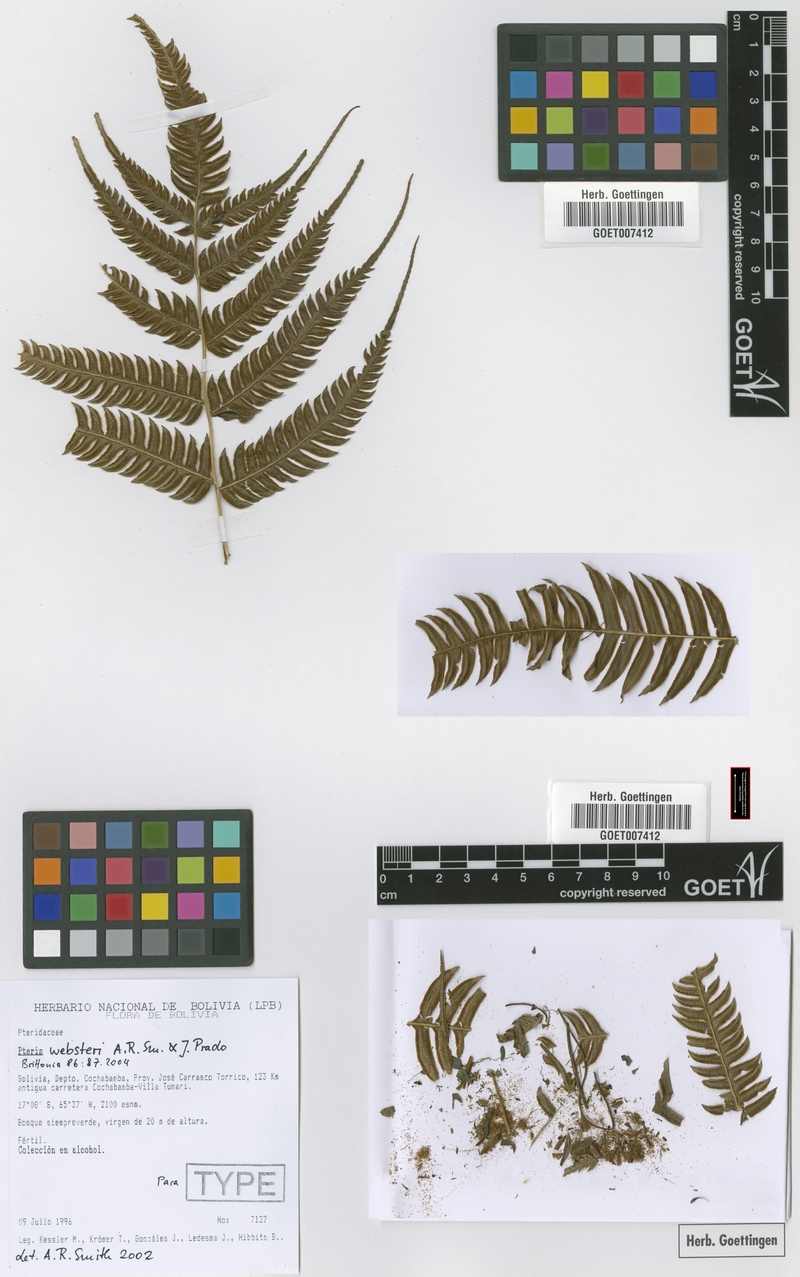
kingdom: Plantae
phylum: Tracheophyta
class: Polypodiopsida
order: Polypodiales
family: Pteridaceae
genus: Pteris
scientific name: Pteris websteri
